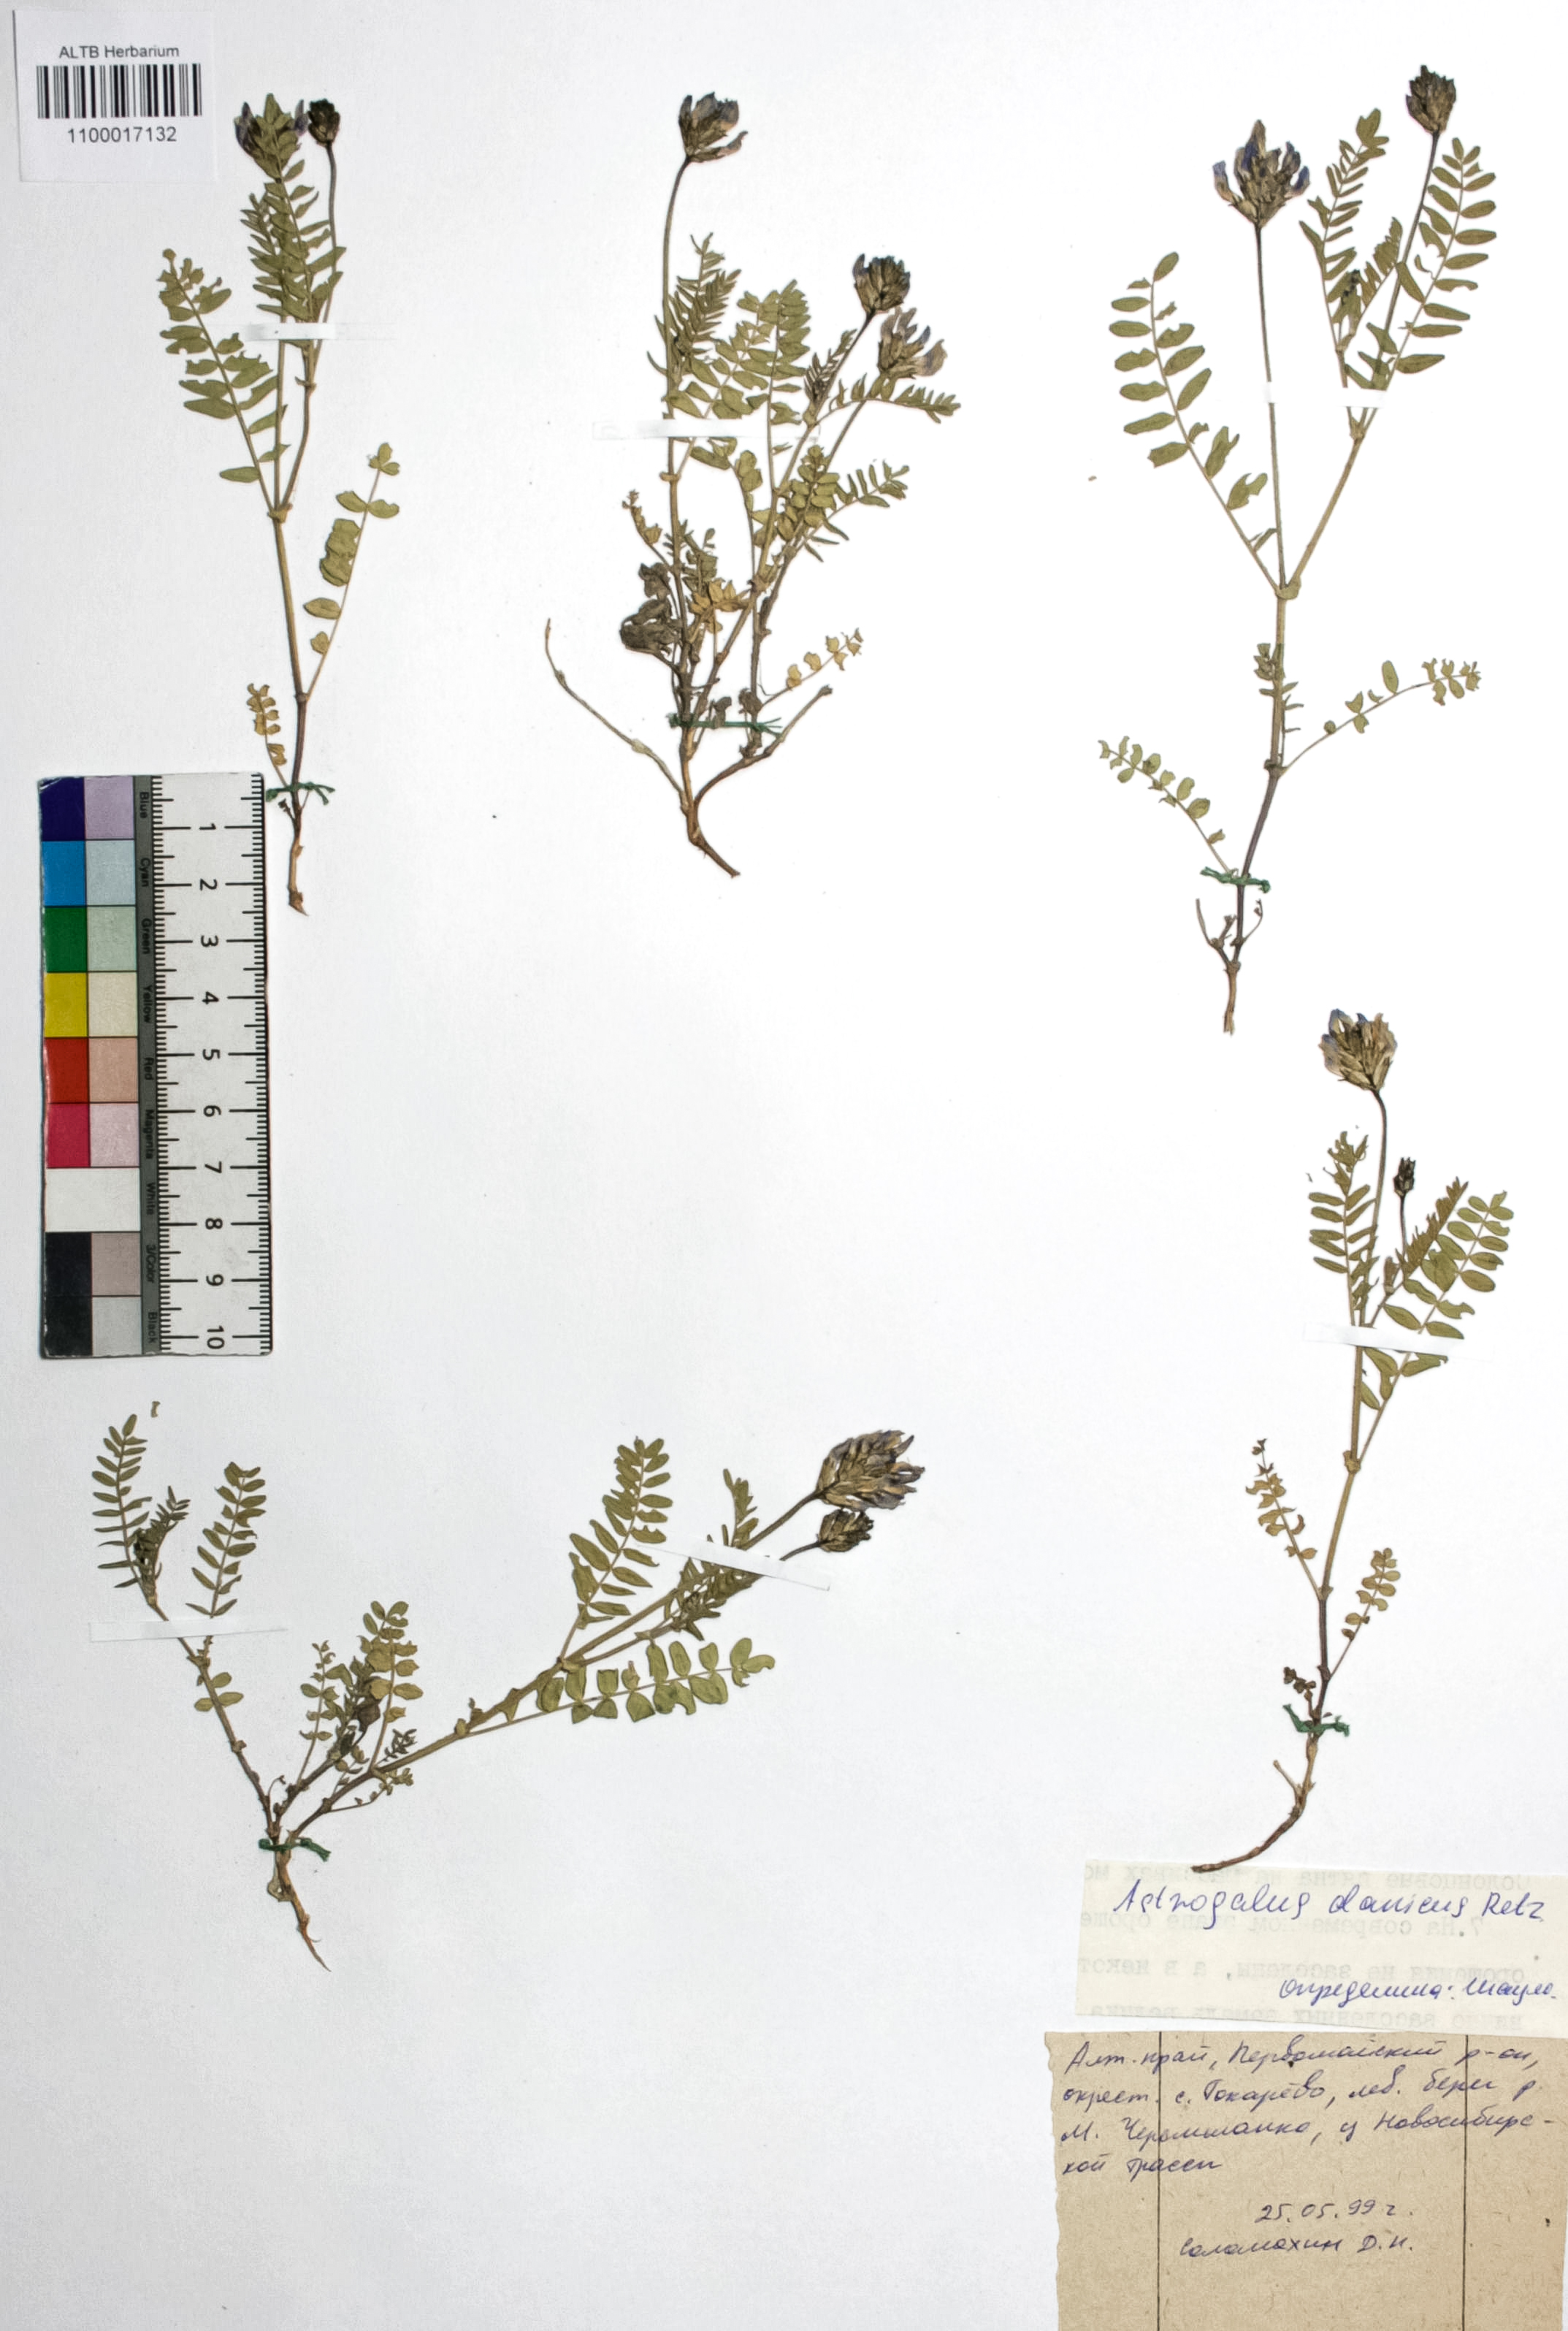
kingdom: Plantae
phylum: Tracheophyta
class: Magnoliopsida
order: Fabales
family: Fabaceae
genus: Astragalus
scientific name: Astragalus danicus
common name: Purple milk-vetch
